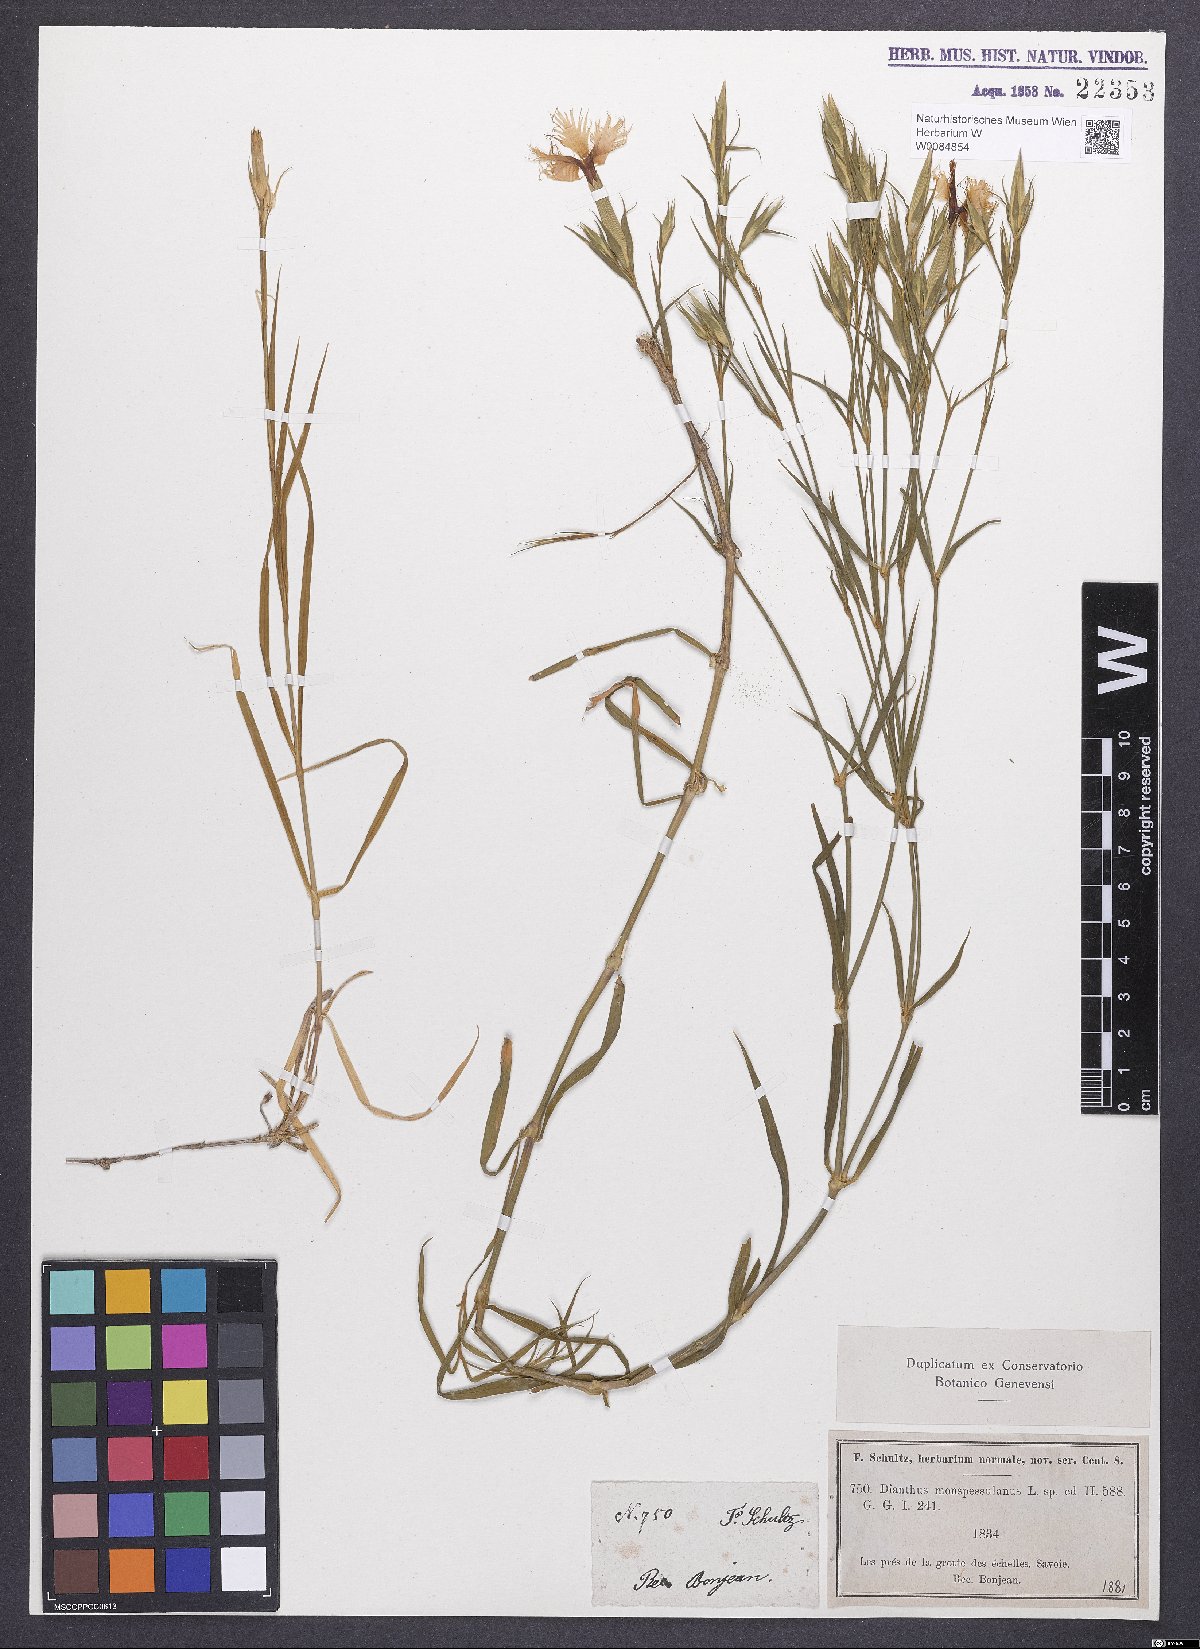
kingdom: Plantae
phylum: Tracheophyta
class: Magnoliopsida
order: Caryophyllales
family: Caryophyllaceae
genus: Dianthus
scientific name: Dianthus hyssopifolius
